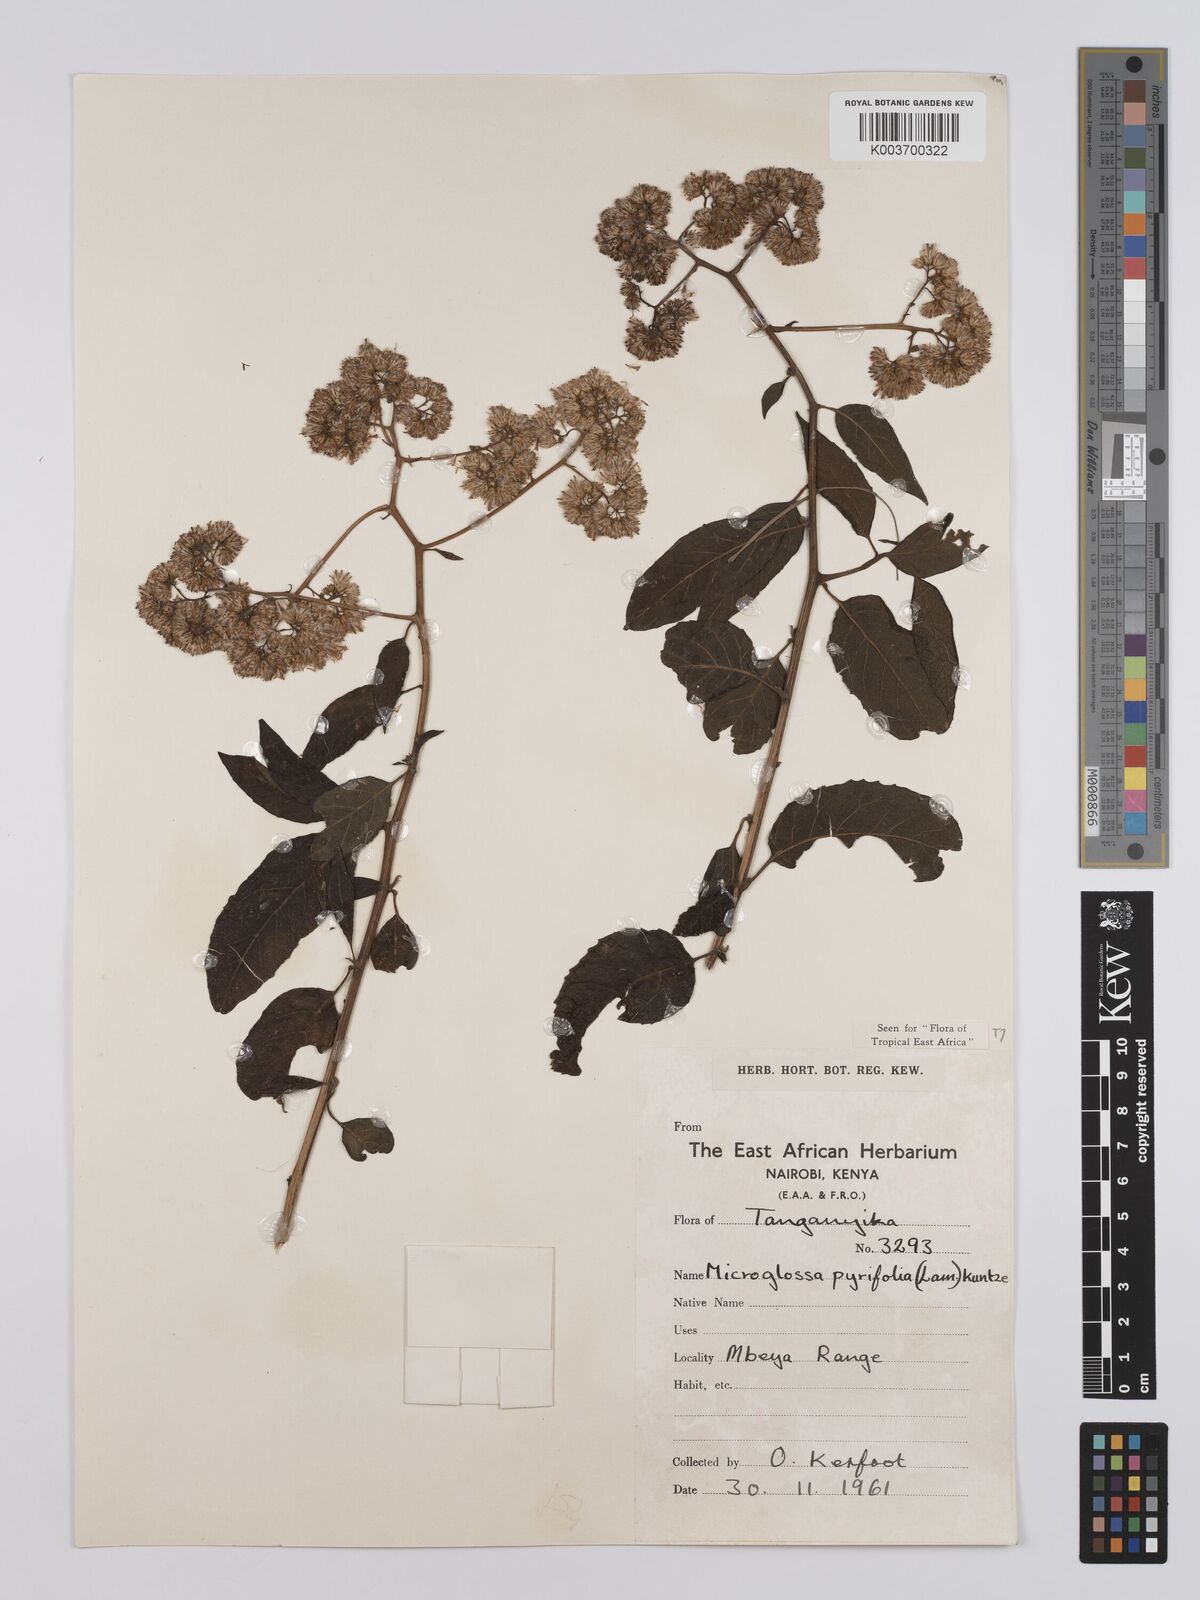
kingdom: Plantae
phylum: Tracheophyta
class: Magnoliopsida
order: Asterales
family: Asteraceae
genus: Microglossa
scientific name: Microglossa densiflora
